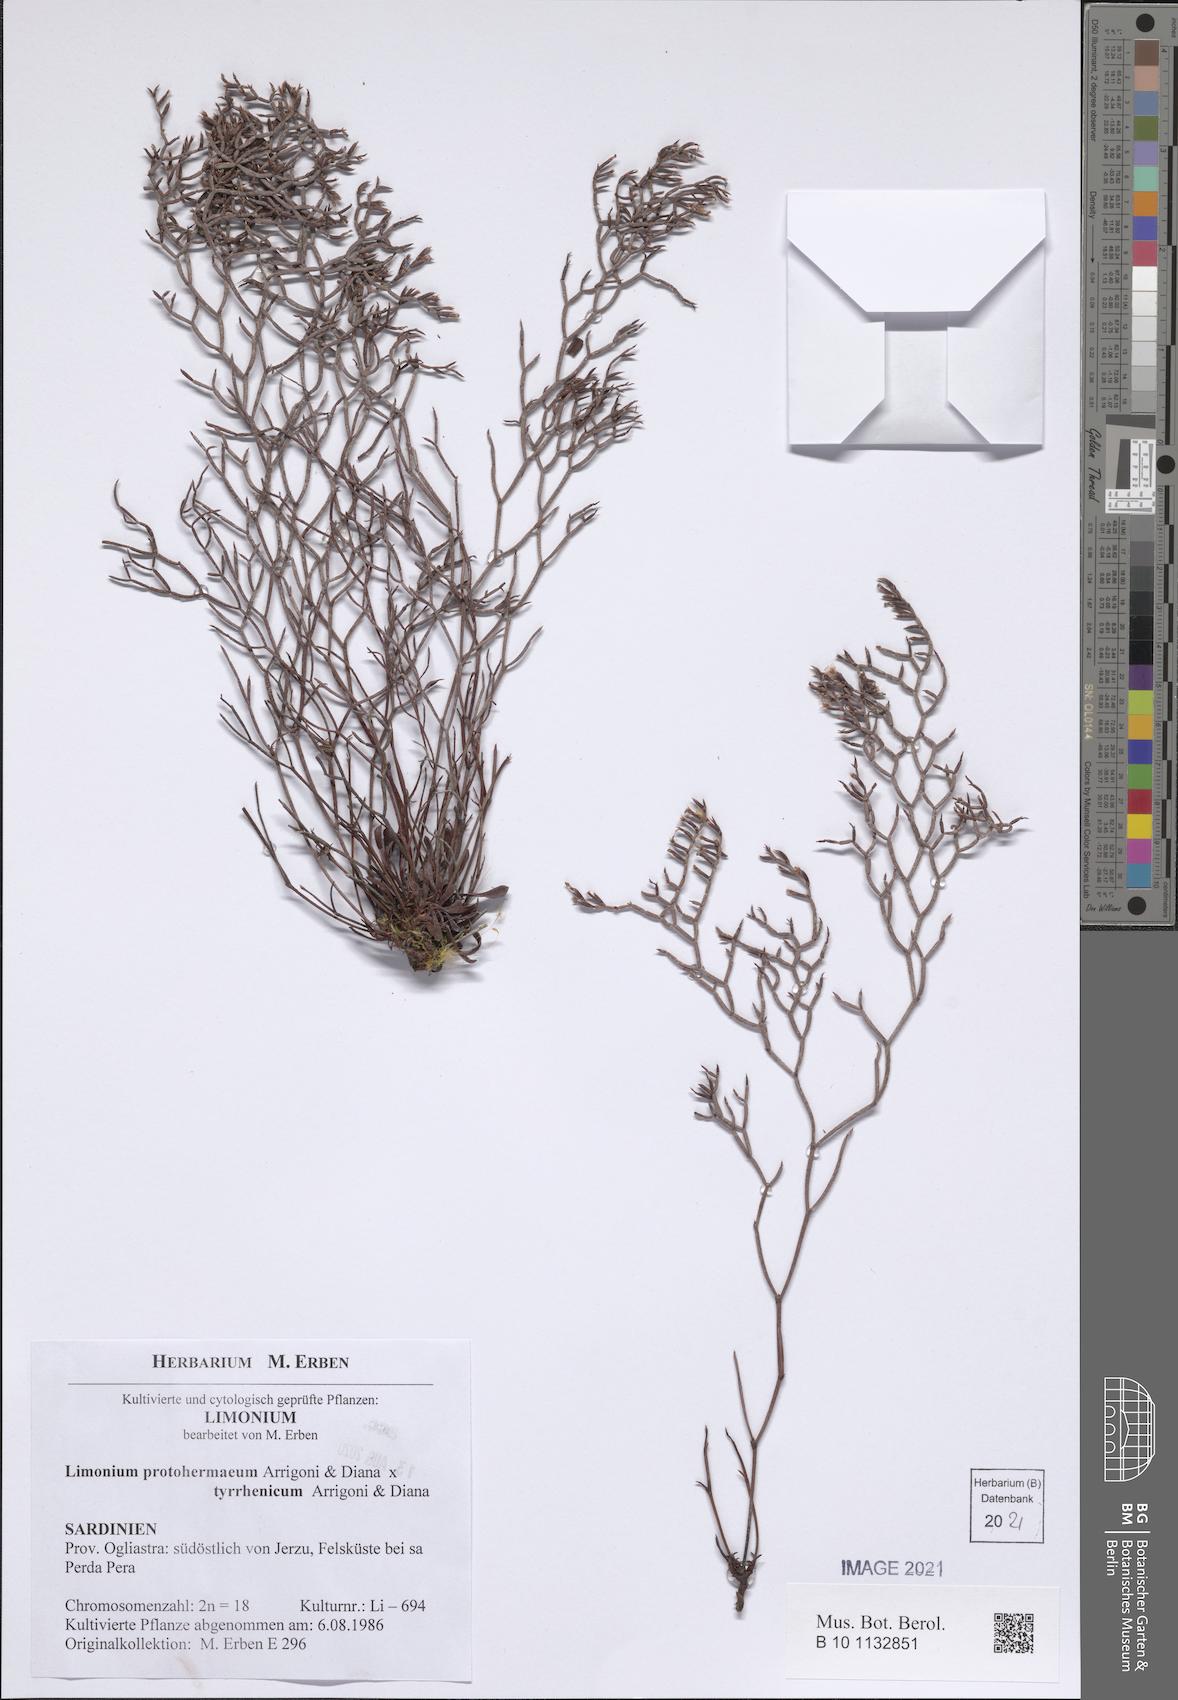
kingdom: Plantae
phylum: Tracheophyta
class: Magnoliopsida
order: Caryophyllales
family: Plumbaginaceae
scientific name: Plumbaginaceae
